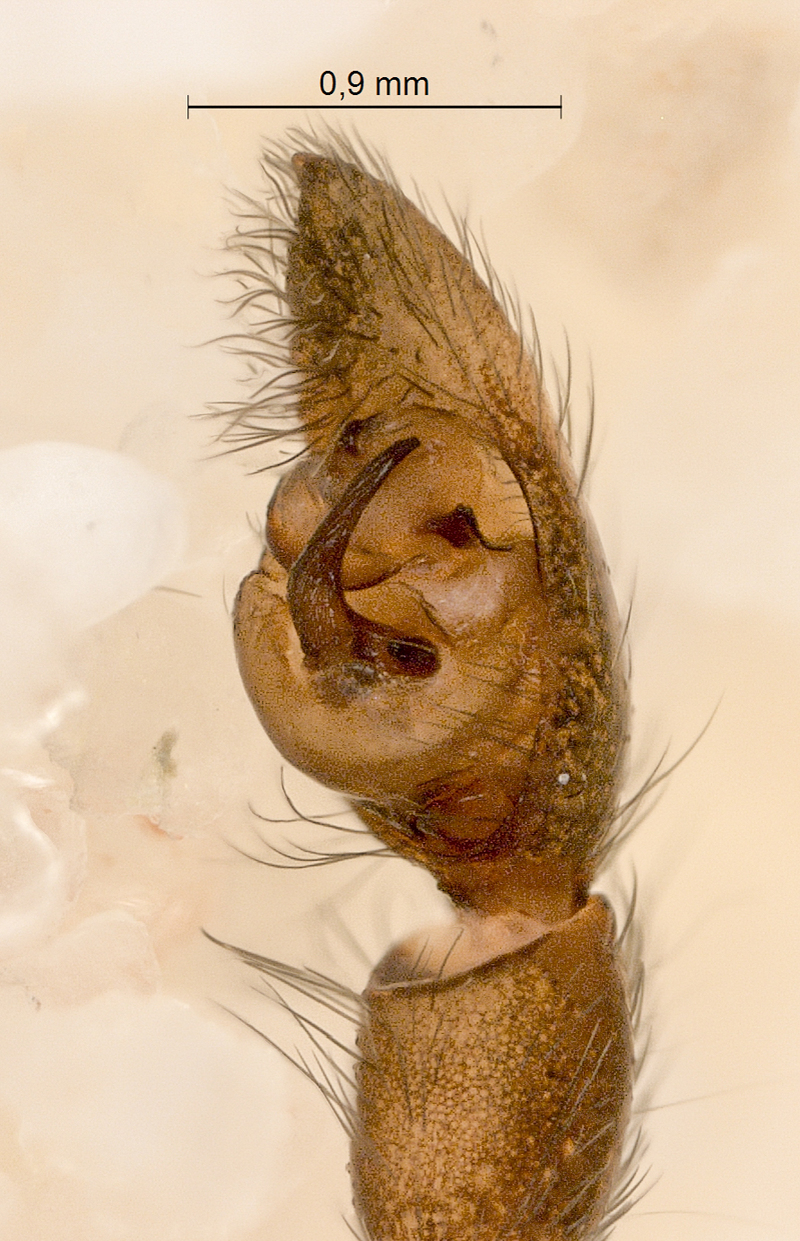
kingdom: Animalia
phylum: Arthropoda
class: Arachnida
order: Araneae
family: Lycosidae
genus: Pardosa
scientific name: Pardosa lugubris
